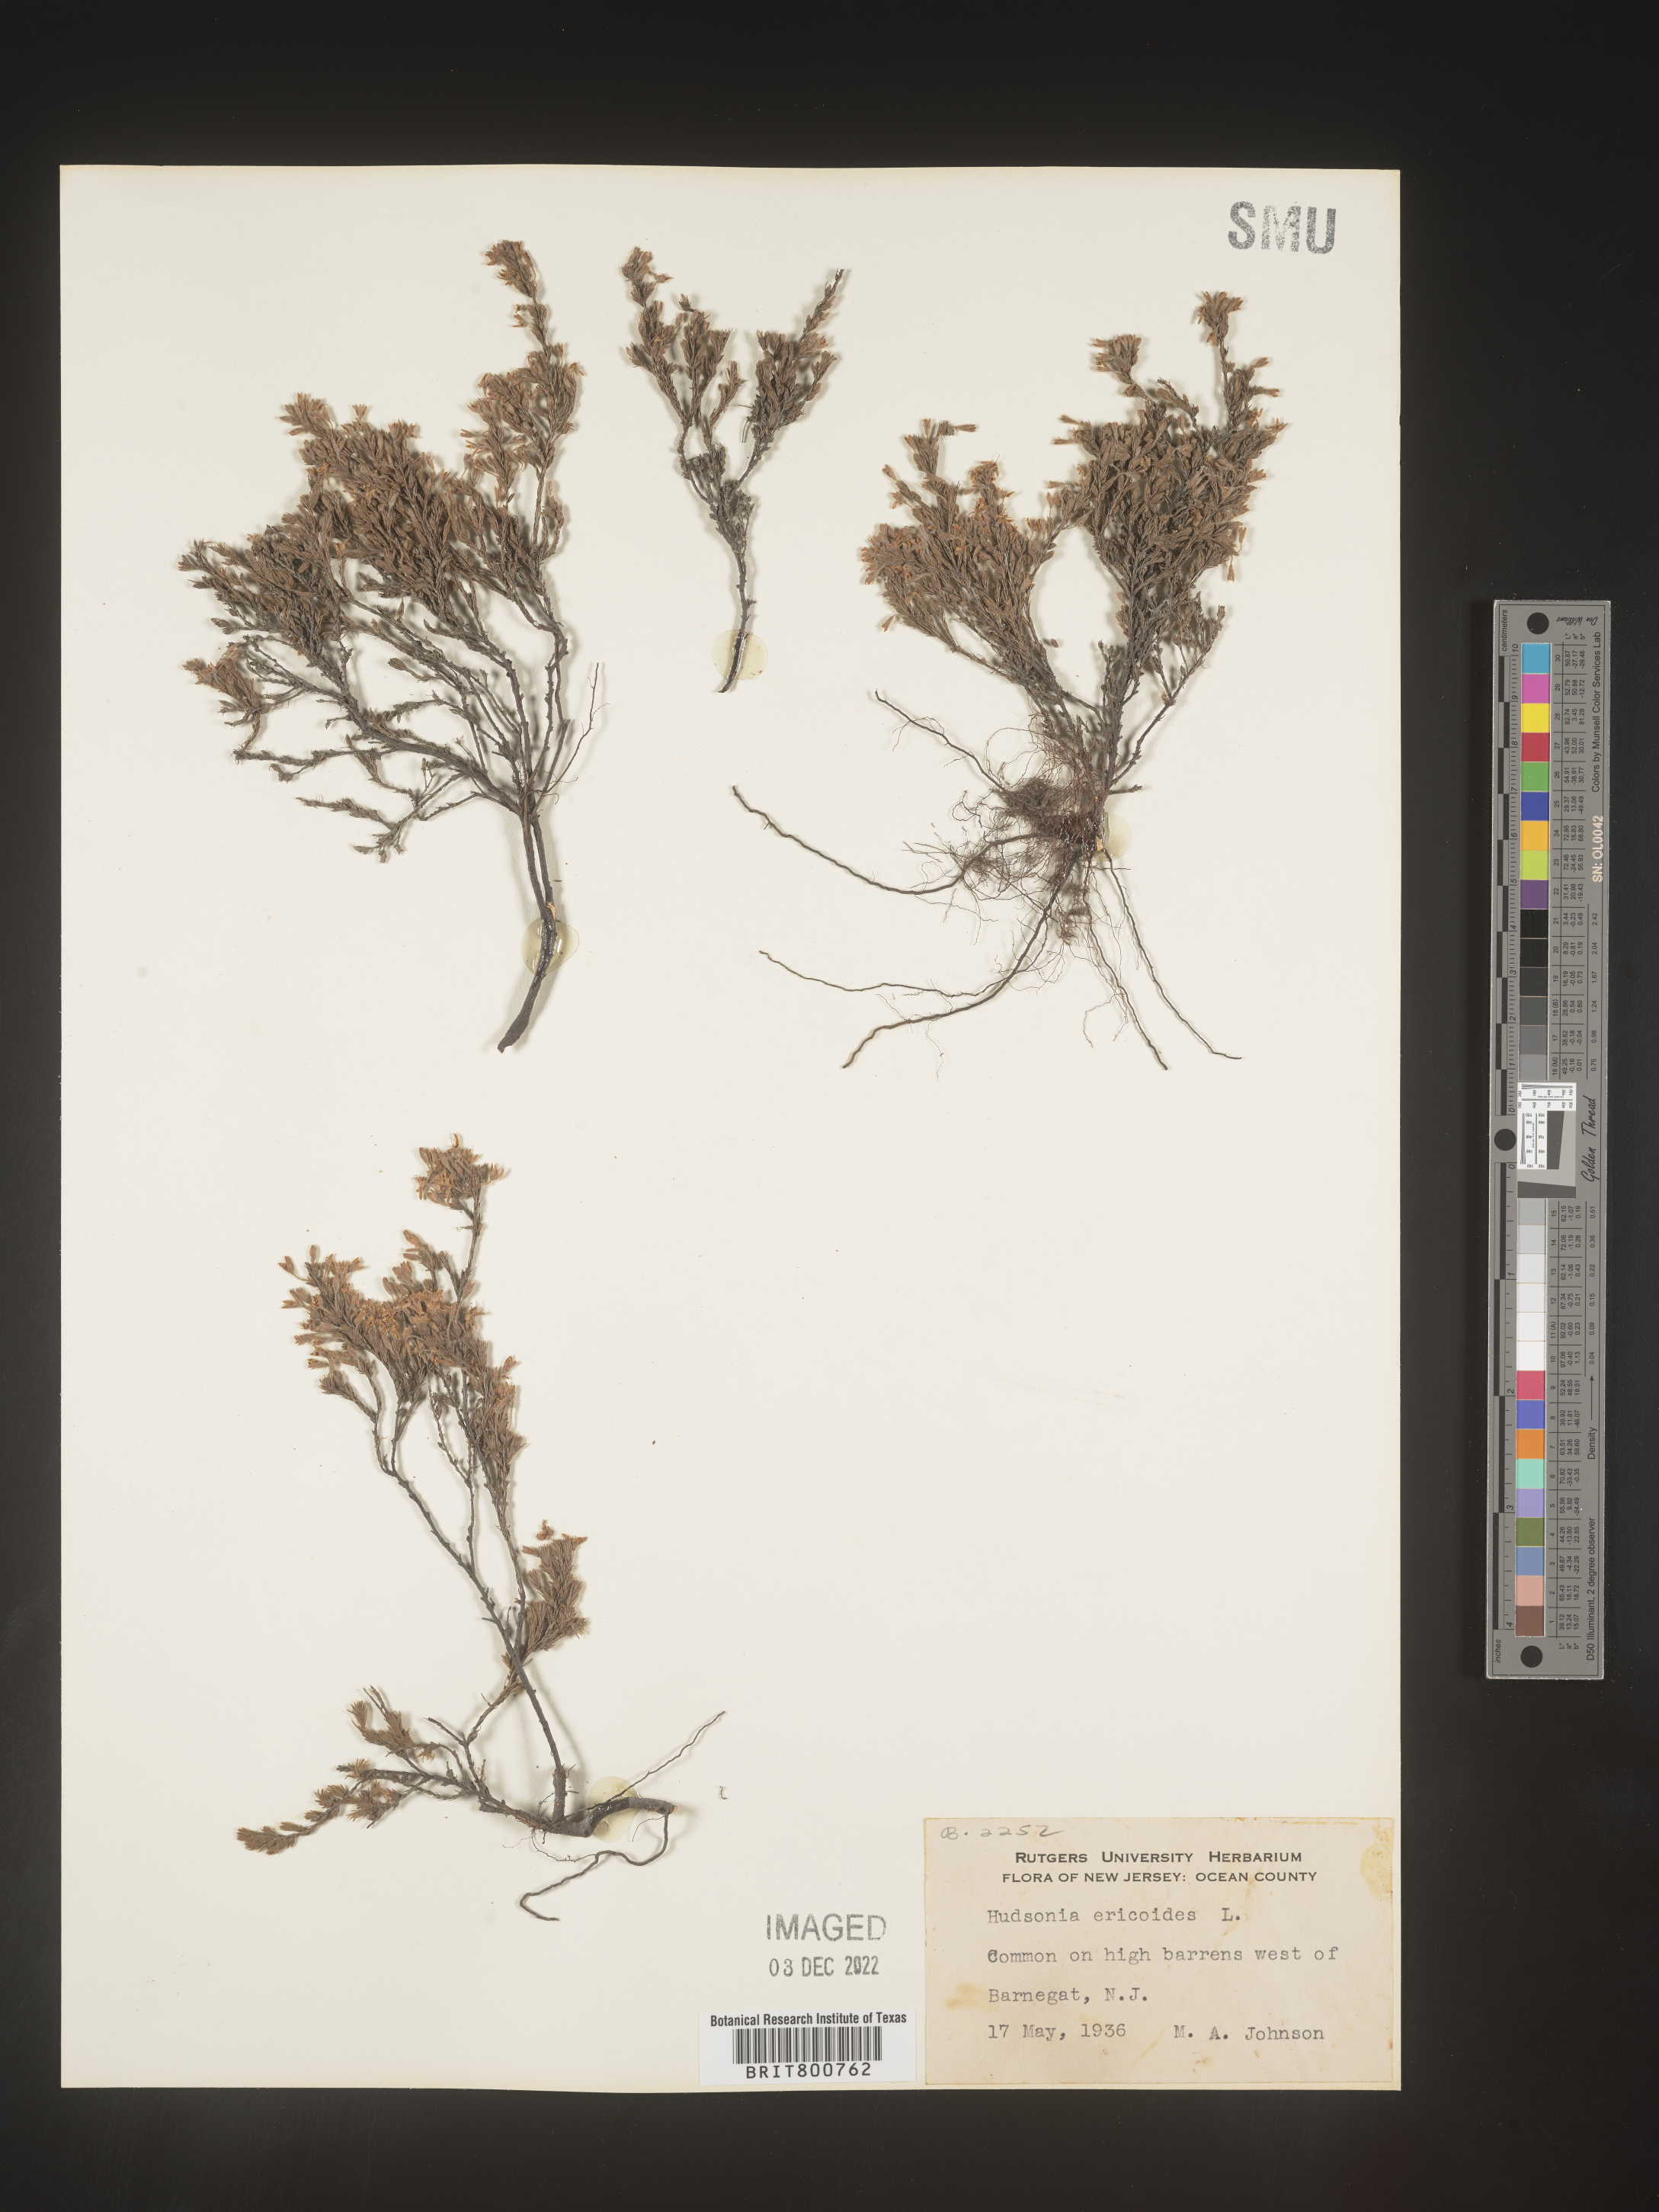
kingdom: Plantae
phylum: Tracheophyta
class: Magnoliopsida
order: Malvales
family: Cistaceae
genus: Hudsonia
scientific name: Hudsonia ericoides
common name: Golden-heather
